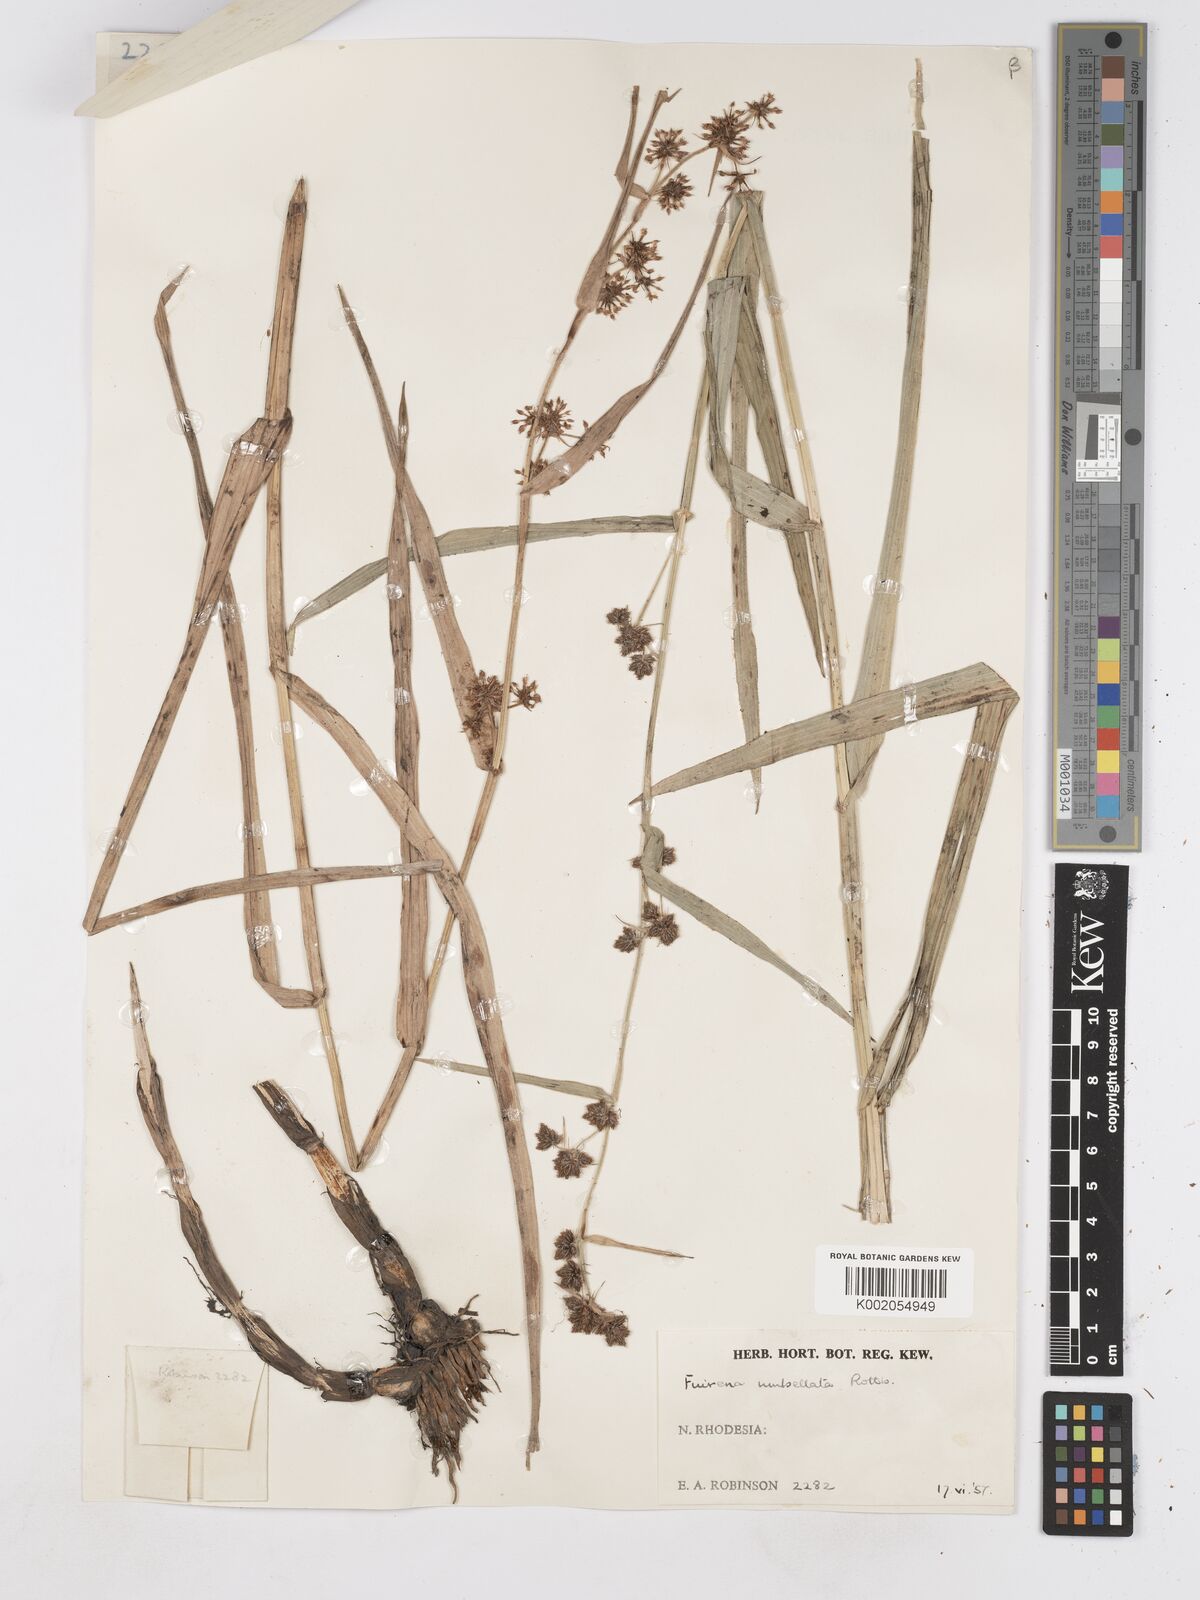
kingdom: Plantae
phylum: Tracheophyta
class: Liliopsida
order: Poales
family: Cyperaceae
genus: Fuirena
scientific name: Fuirena umbellata
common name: Yefen
